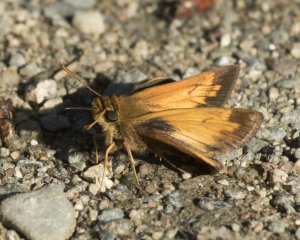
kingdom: Animalia
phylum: Arthropoda
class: Insecta
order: Lepidoptera
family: Hesperiidae
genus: Lon
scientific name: Lon hobomok
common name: Hobomok Skipper
